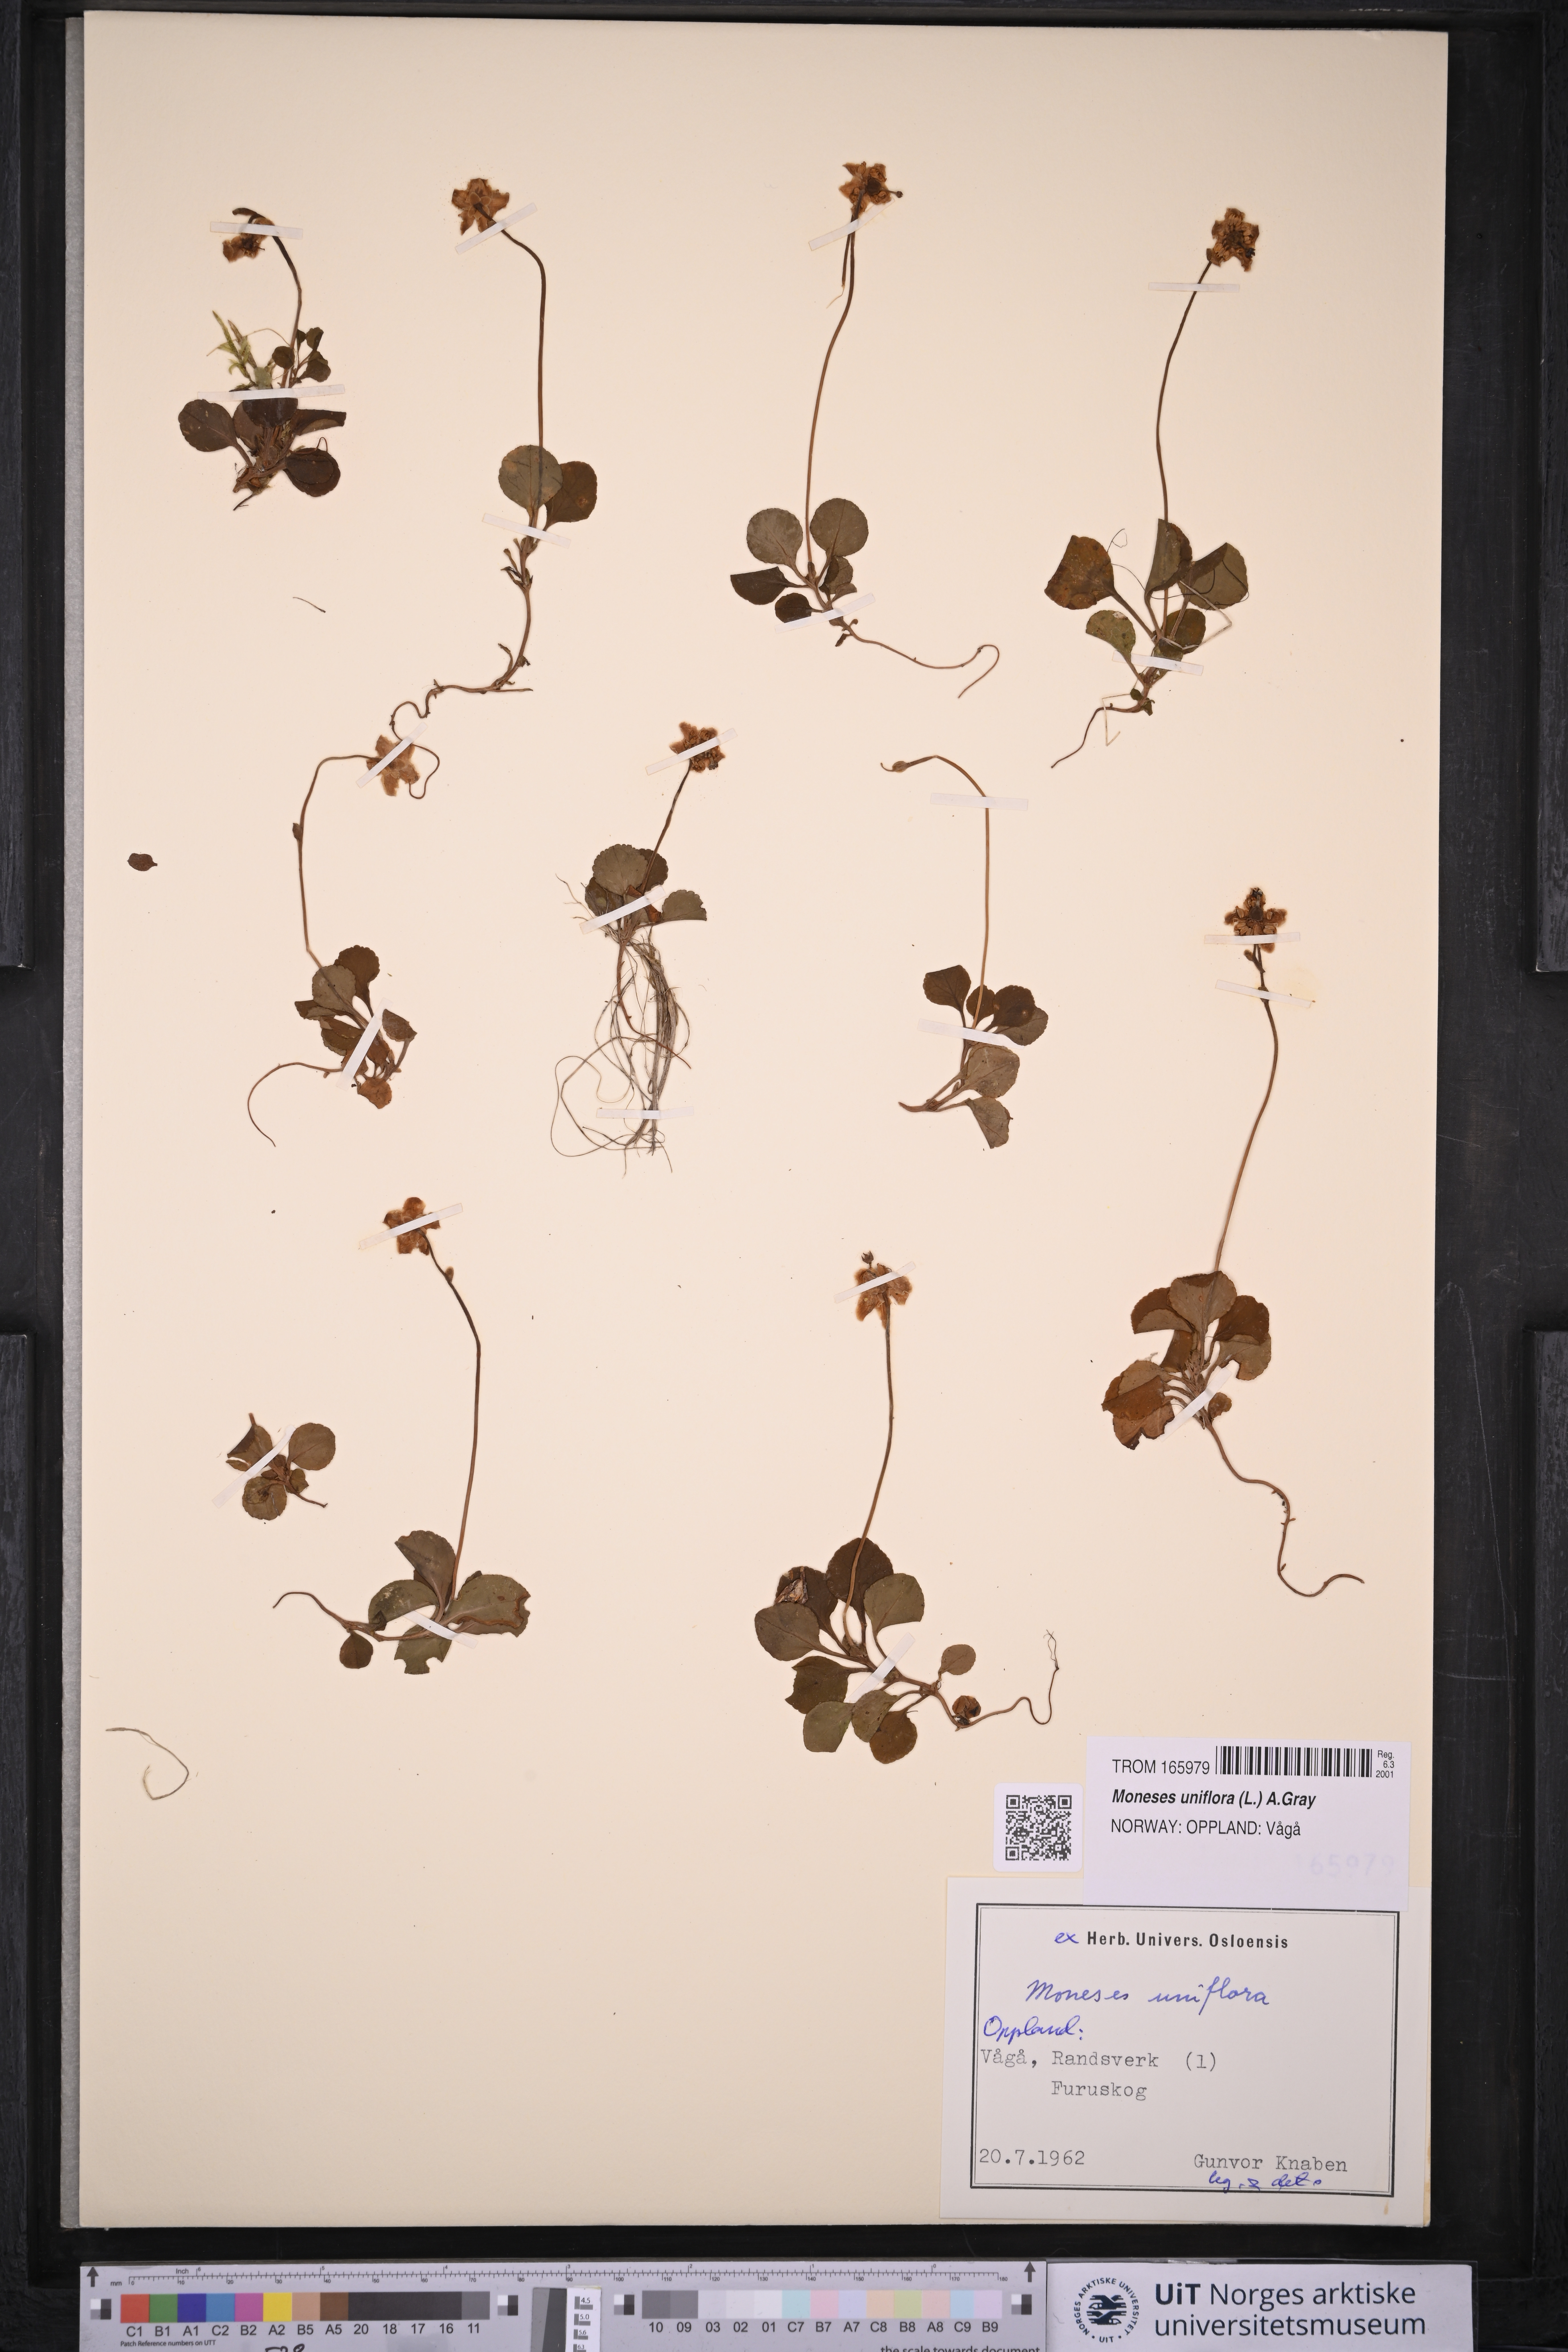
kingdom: Plantae
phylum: Tracheophyta
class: Magnoliopsida
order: Ericales
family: Ericaceae
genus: Moneses
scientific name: Moneses uniflora
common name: One-flowered wintergreen
